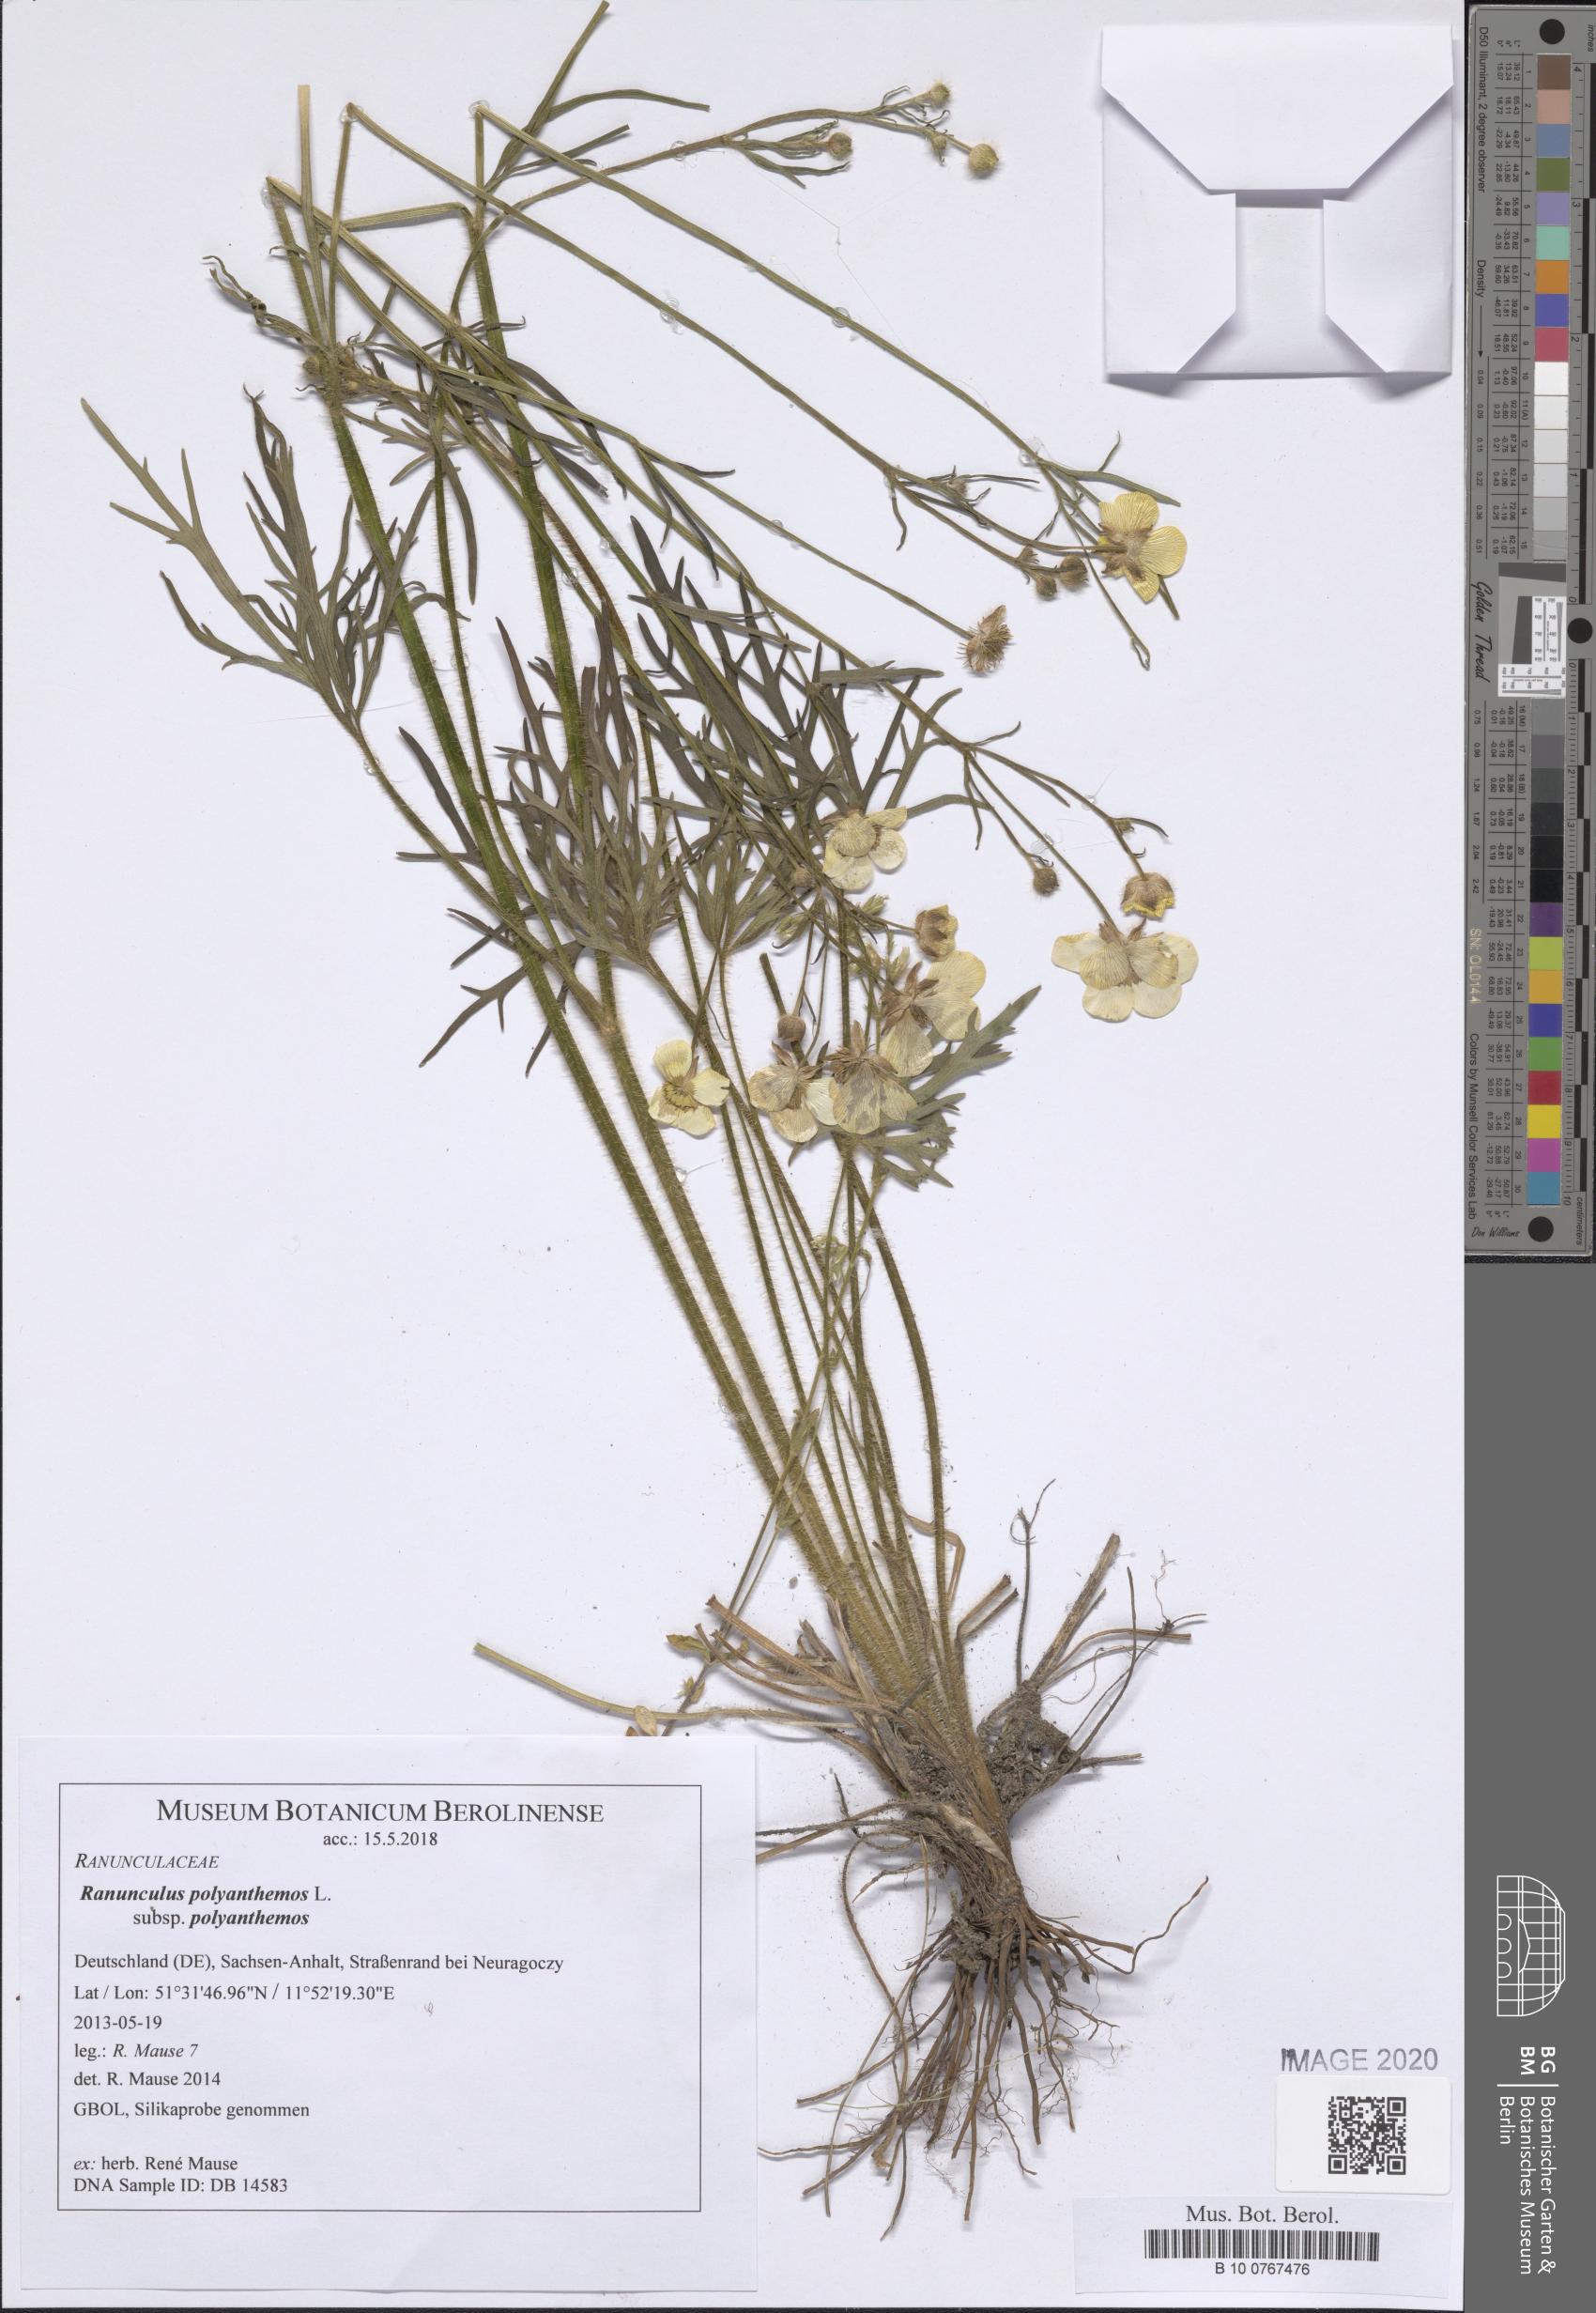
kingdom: Plantae
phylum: Tracheophyta
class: Magnoliopsida
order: Ranunculales
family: Ranunculaceae
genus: Ranunculus
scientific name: Ranunculus polyanthemos
